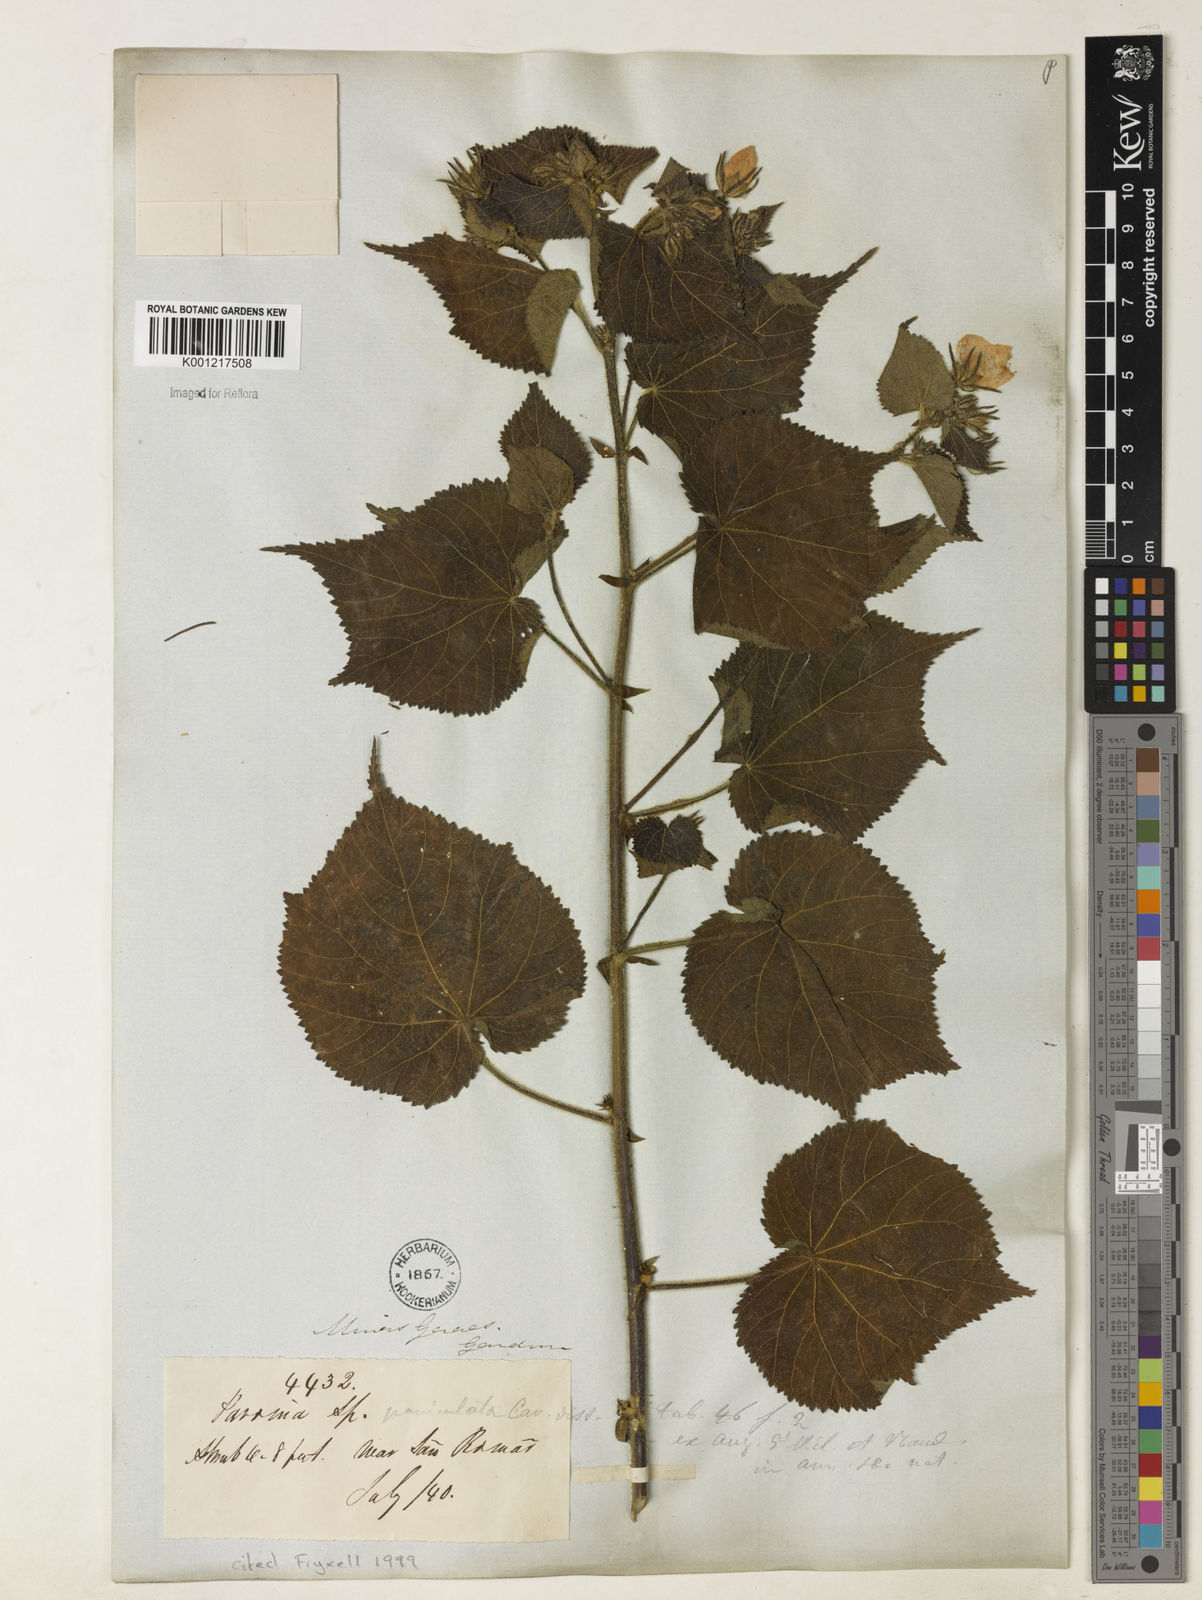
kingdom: Plantae
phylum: Tracheophyta
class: Magnoliopsida
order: Malvales
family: Malvaceae
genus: Pavonia
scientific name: Pavonia paniculata
